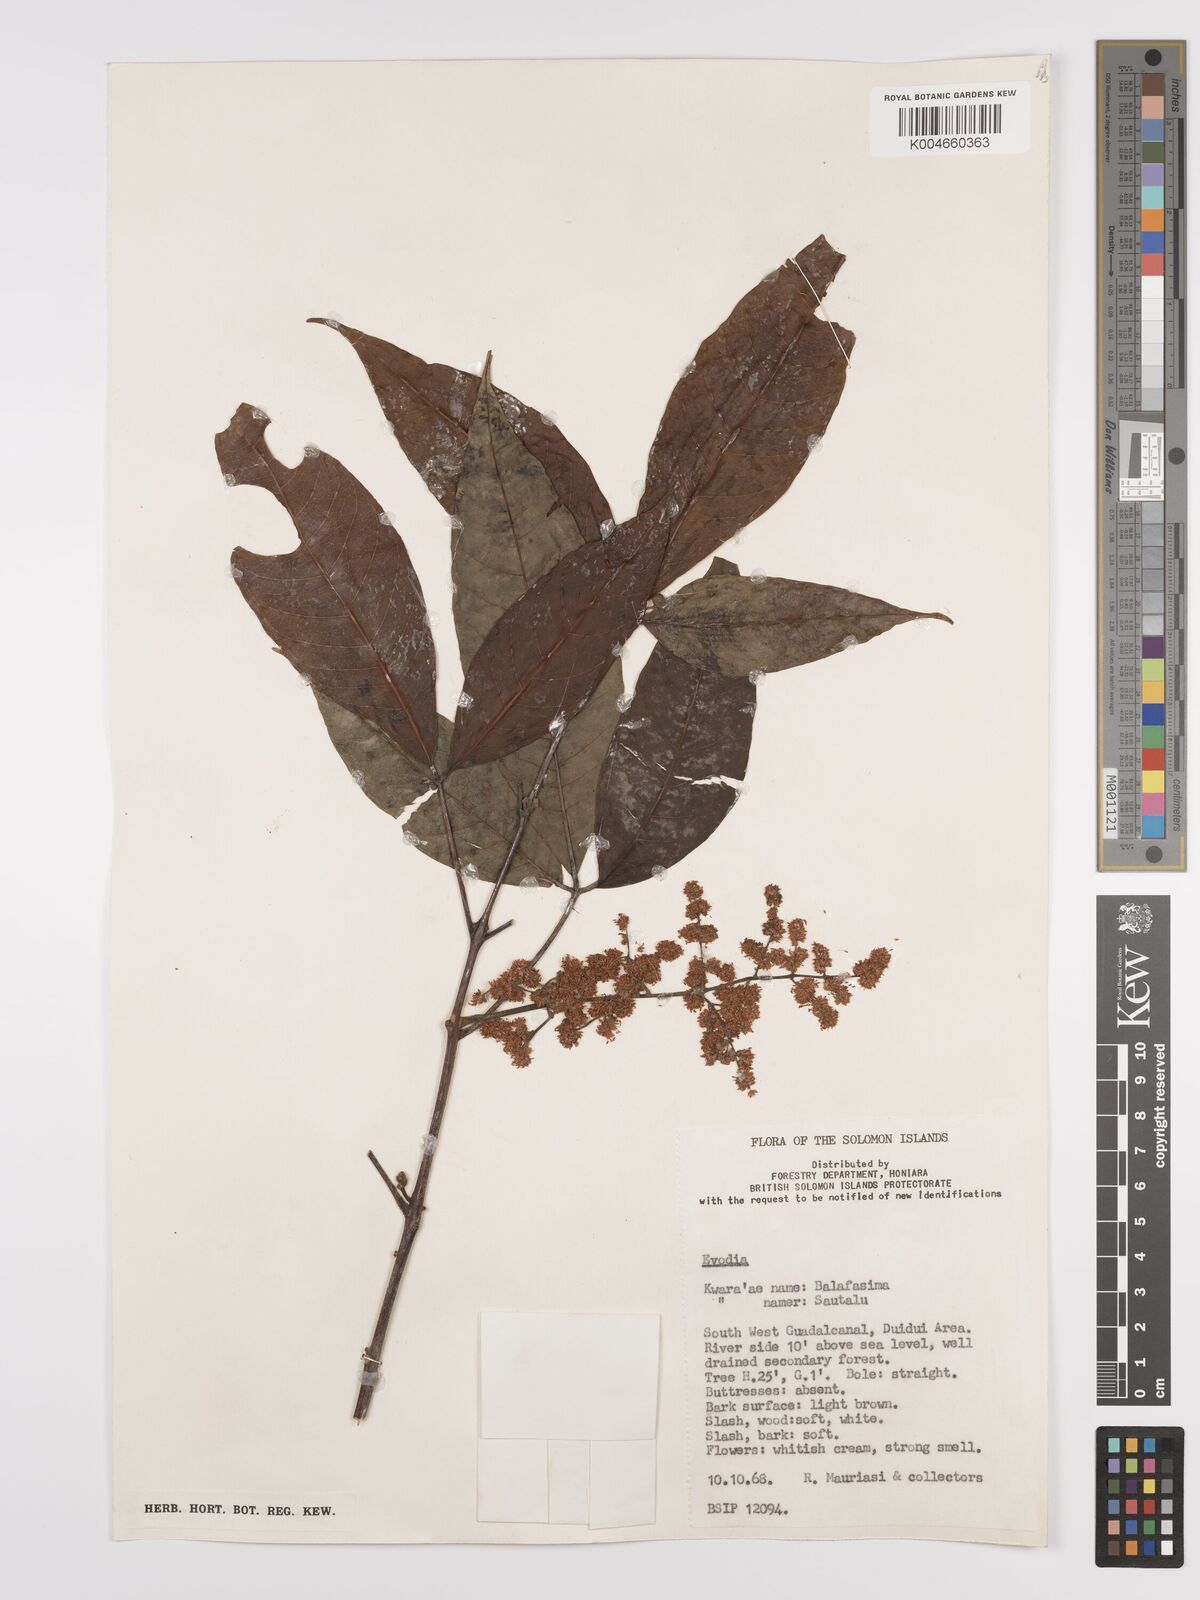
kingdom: Plantae
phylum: Tracheophyta
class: Magnoliopsida
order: Sapindales
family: Rutaceae
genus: Euodia
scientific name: Euodia
